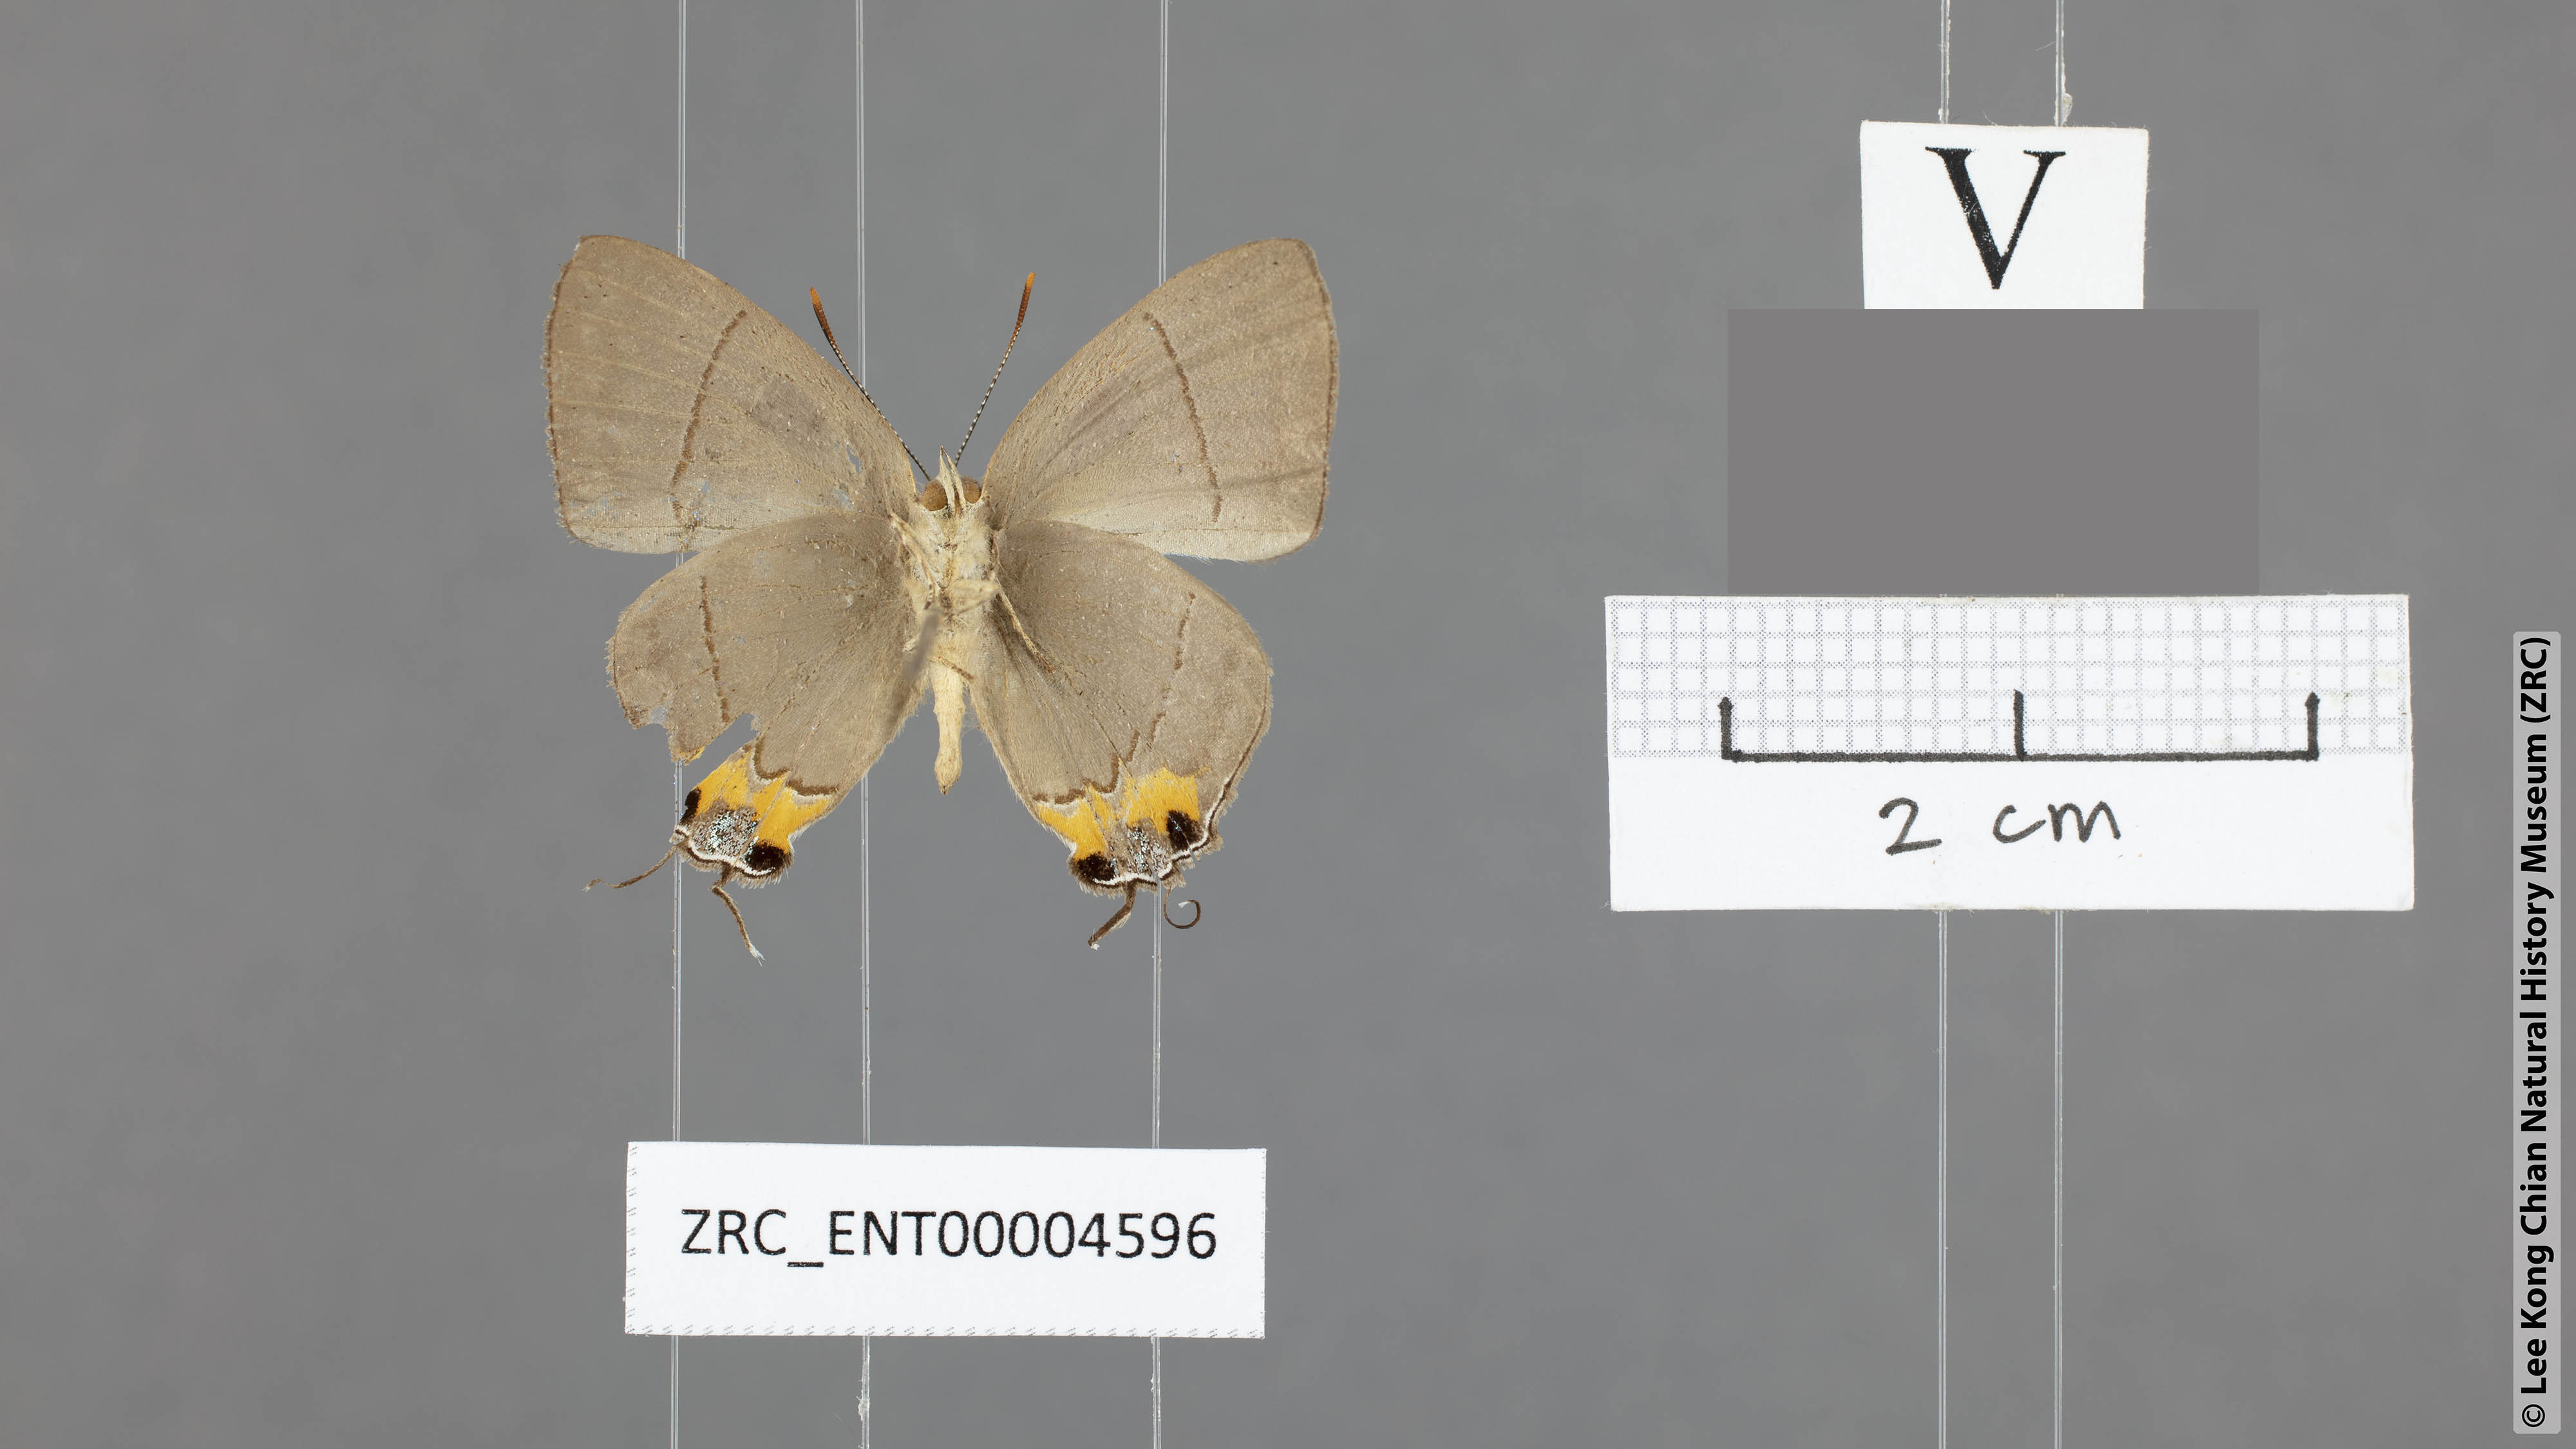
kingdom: Animalia
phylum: Arthropoda
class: Insecta
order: Lepidoptera
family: Lycaenidae
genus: Tajuria
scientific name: Tajuria dominus
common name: Influent royal
